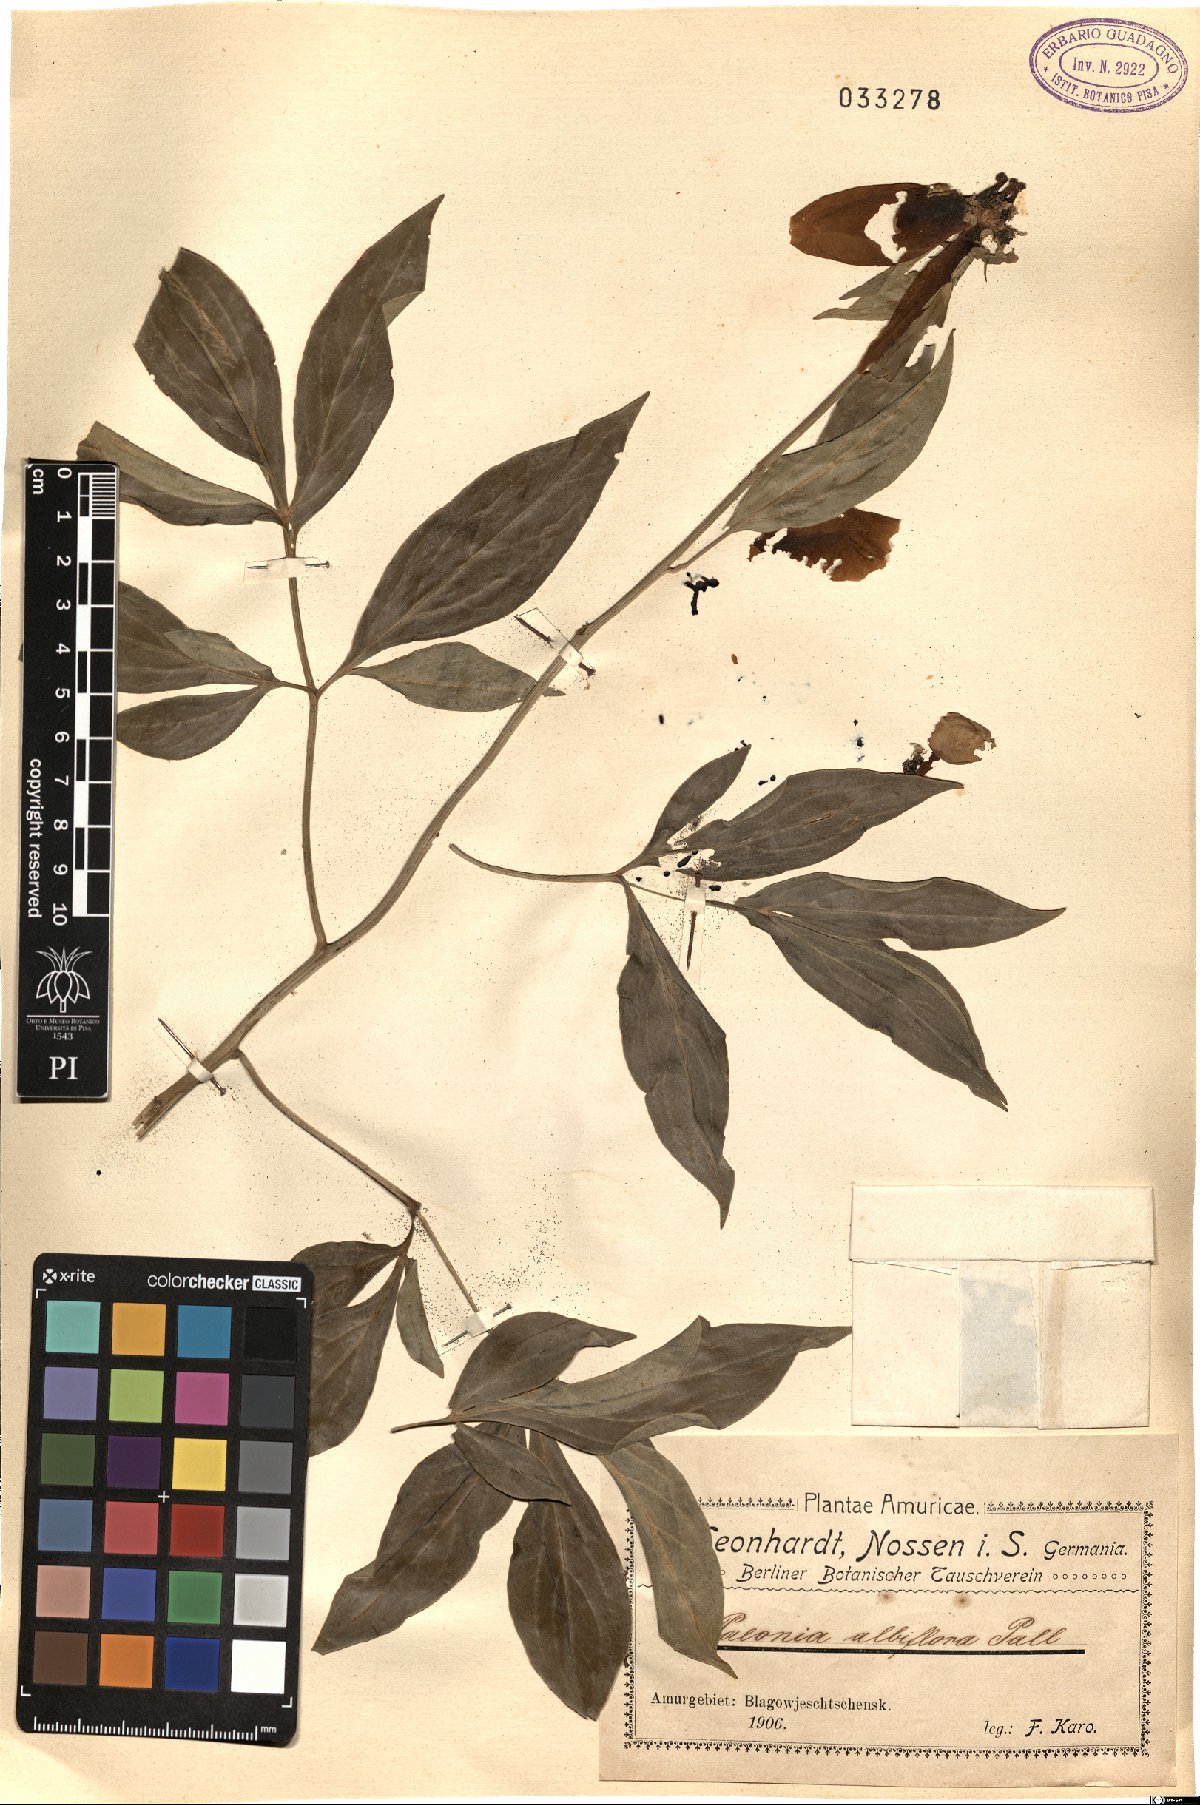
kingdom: Plantae
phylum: Tracheophyta
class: Magnoliopsida
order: Saxifragales
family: Paeoniaceae
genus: Paeonia
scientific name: Paeonia lactiflora
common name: Chinese peony
